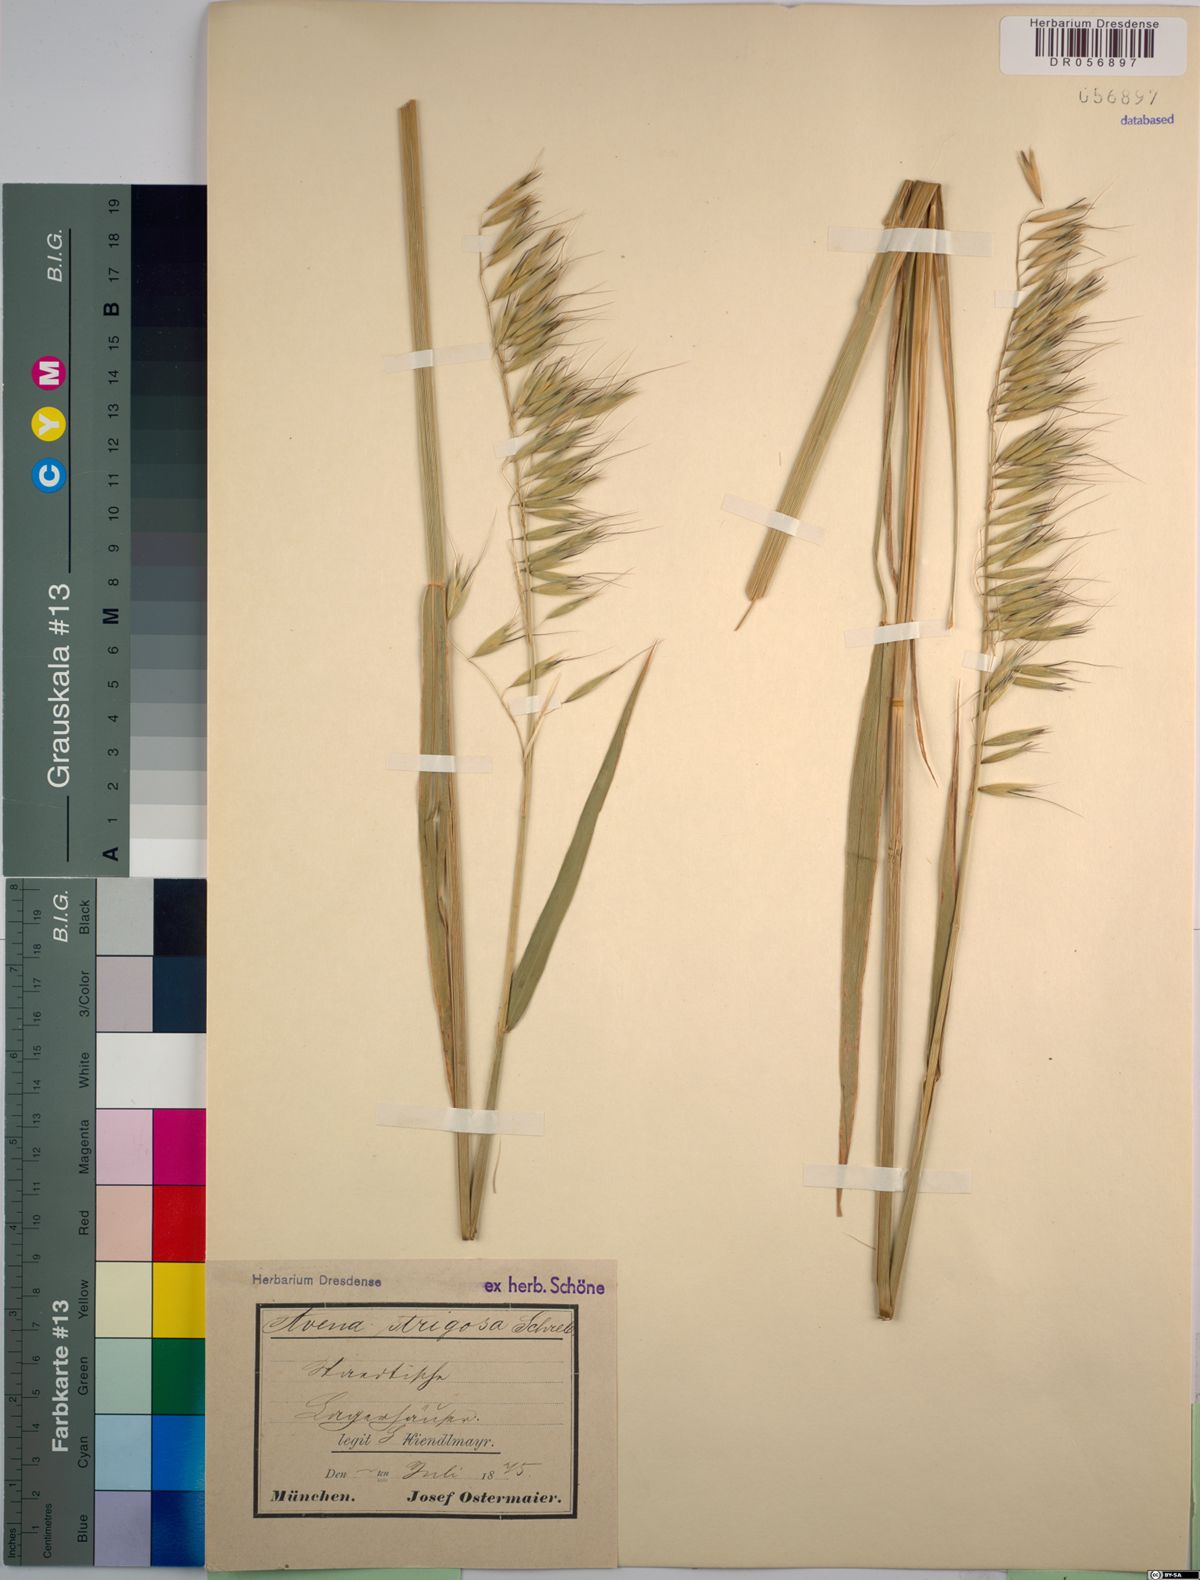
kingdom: Plantae
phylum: Tracheophyta
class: Liliopsida
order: Poales
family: Poaceae
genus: Avena
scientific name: Avena strigosa
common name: Bristle oat
